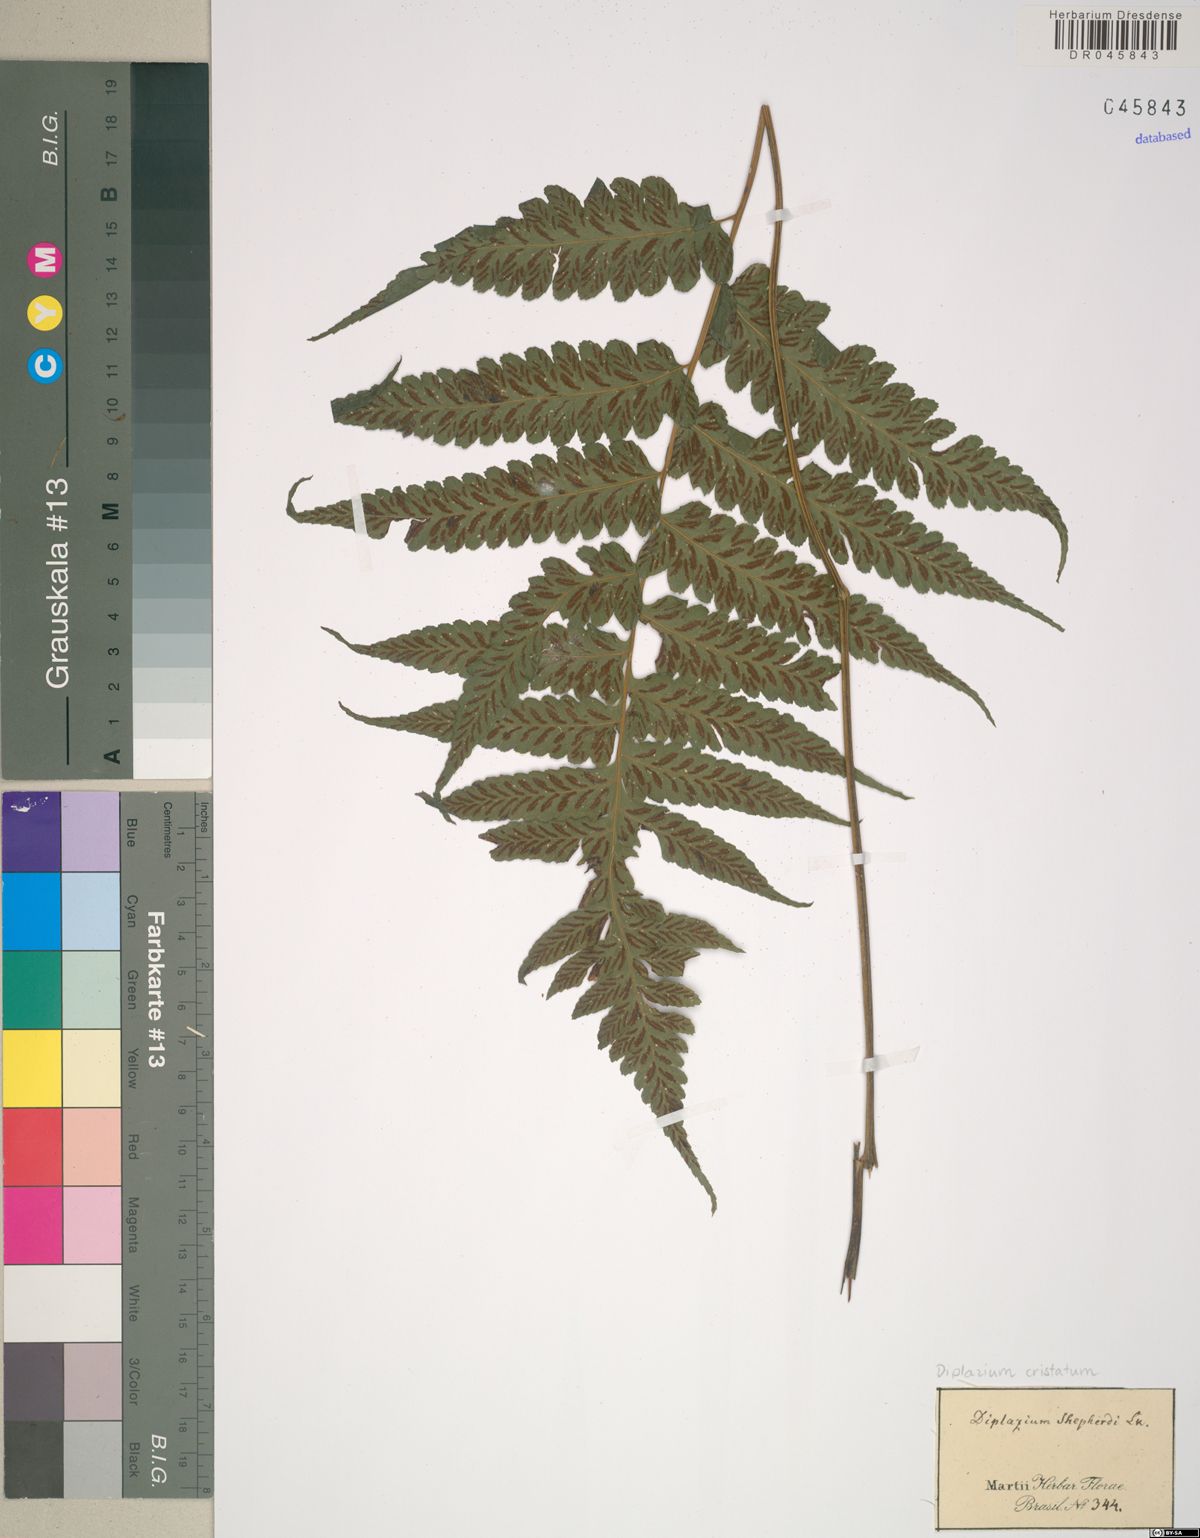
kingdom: Plantae
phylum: Tracheophyta
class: Polypodiopsida
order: Polypodiales
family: Athyriaceae
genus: Diplazium
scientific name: Diplazium cristatum
